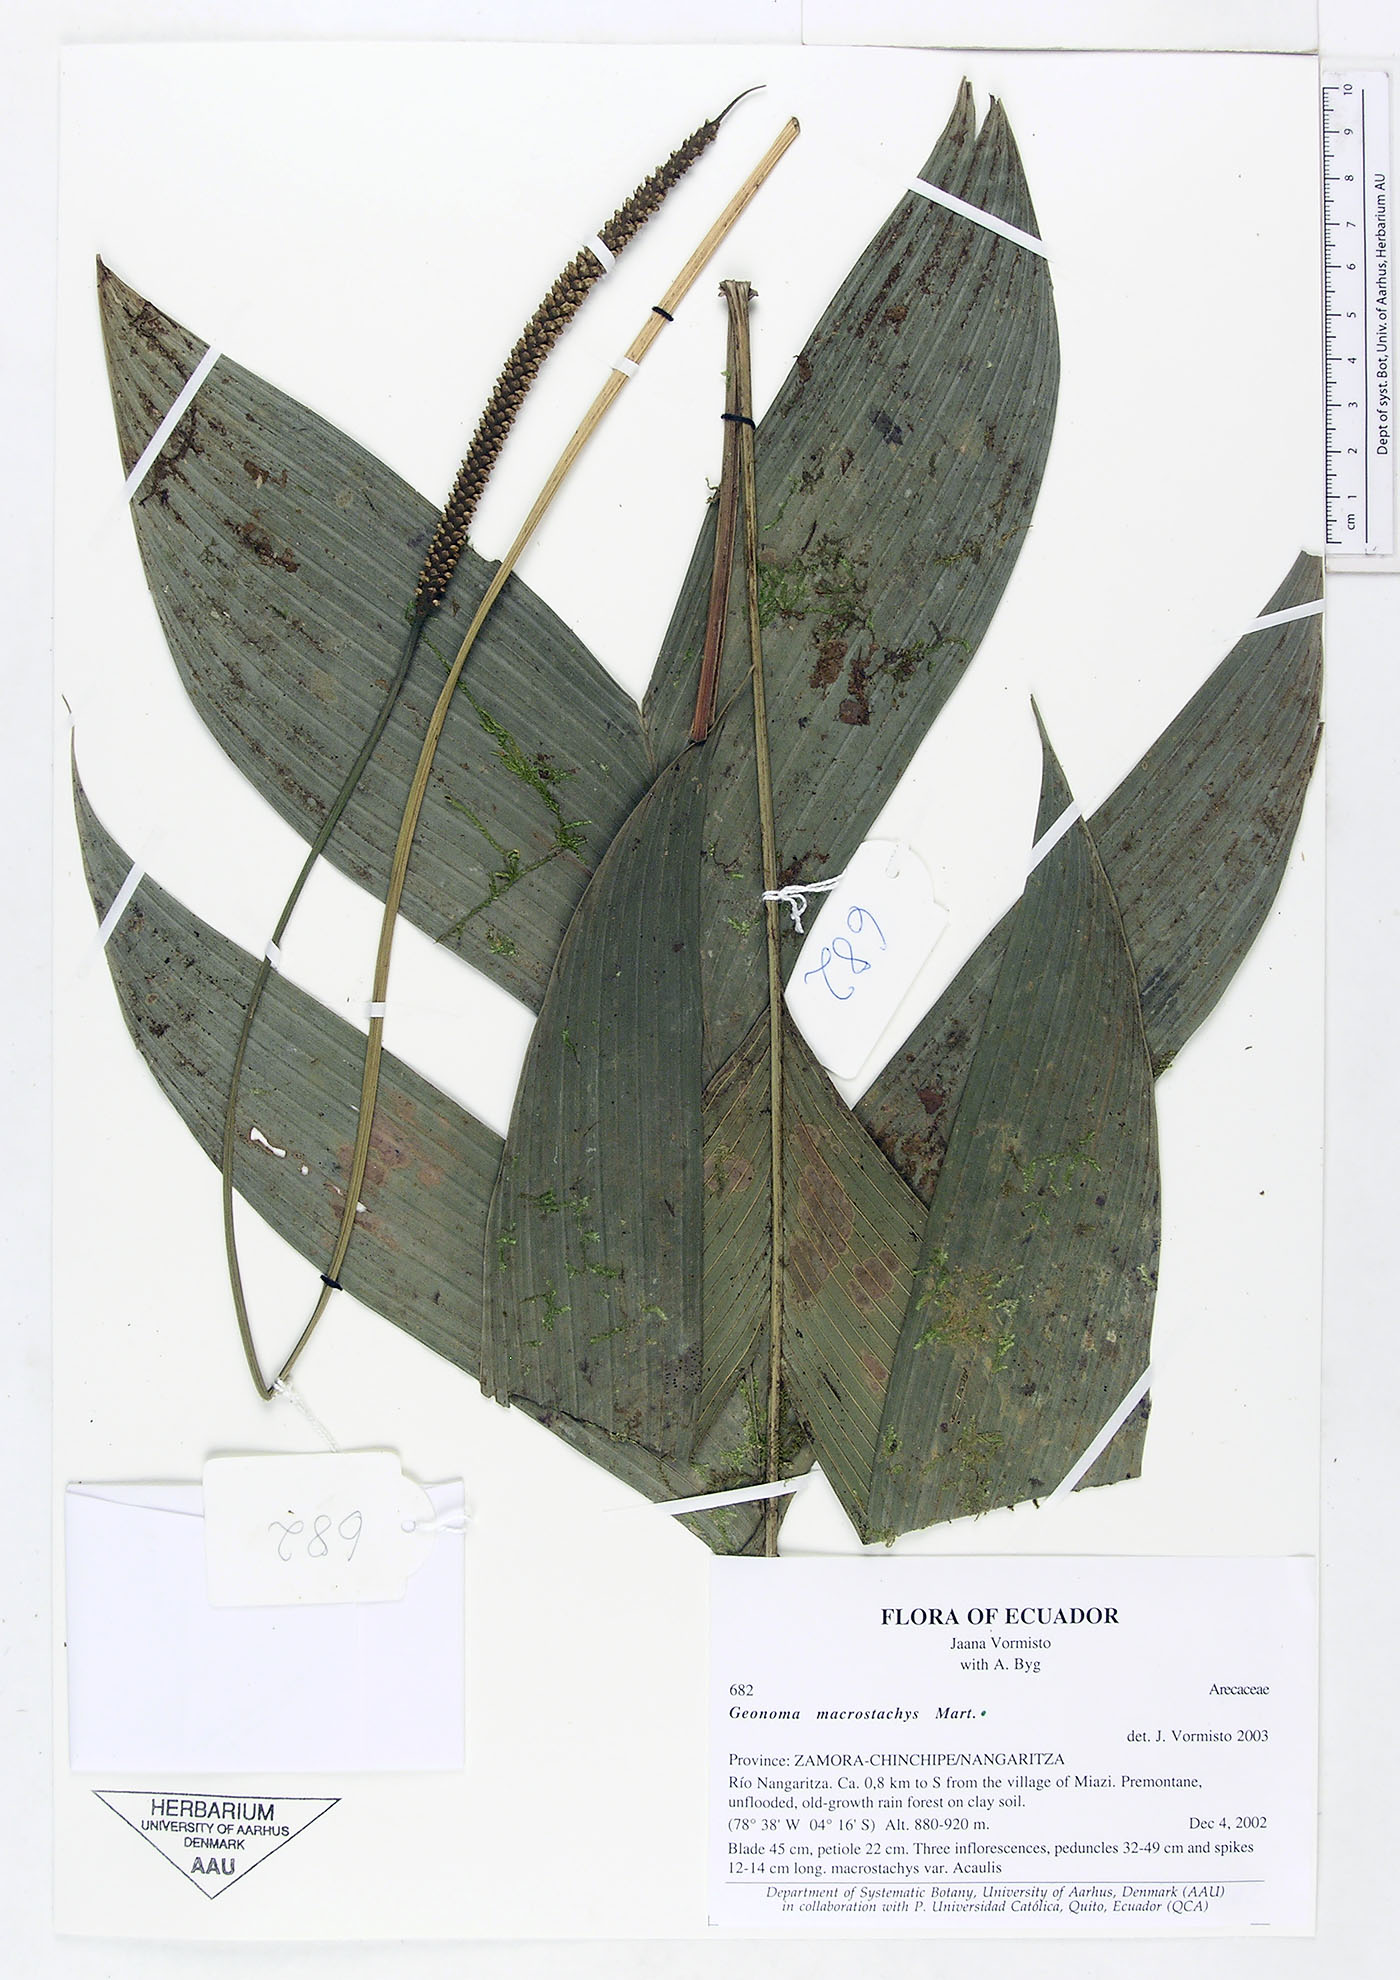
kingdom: Plantae
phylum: Tracheophyta
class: Liliopsida
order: Arecales
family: Arecaceae
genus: Geonoma
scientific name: Geonoma macrostachys
